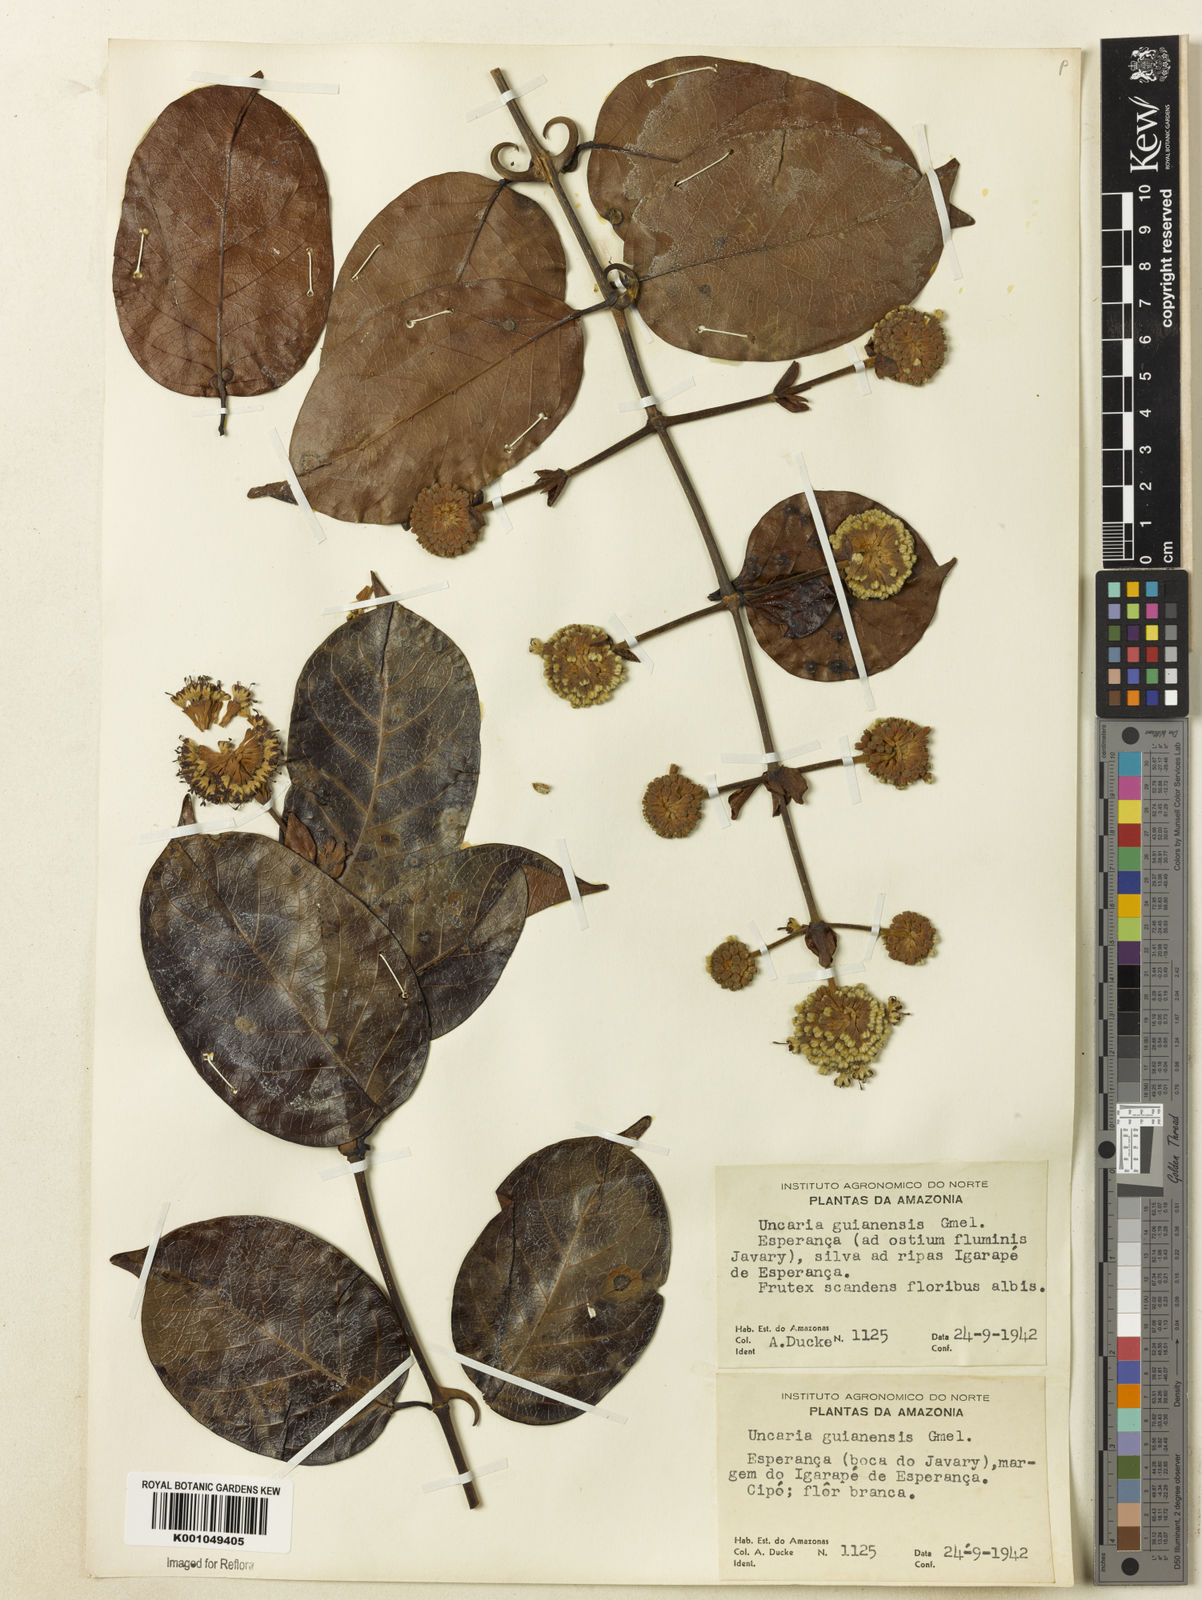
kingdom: Plantae
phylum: Tracheophyta
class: Magnoliopsida
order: Gentianales
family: Rubiaceae
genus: Uncaria
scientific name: Uncaria guianensis
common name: Cat's-claw
